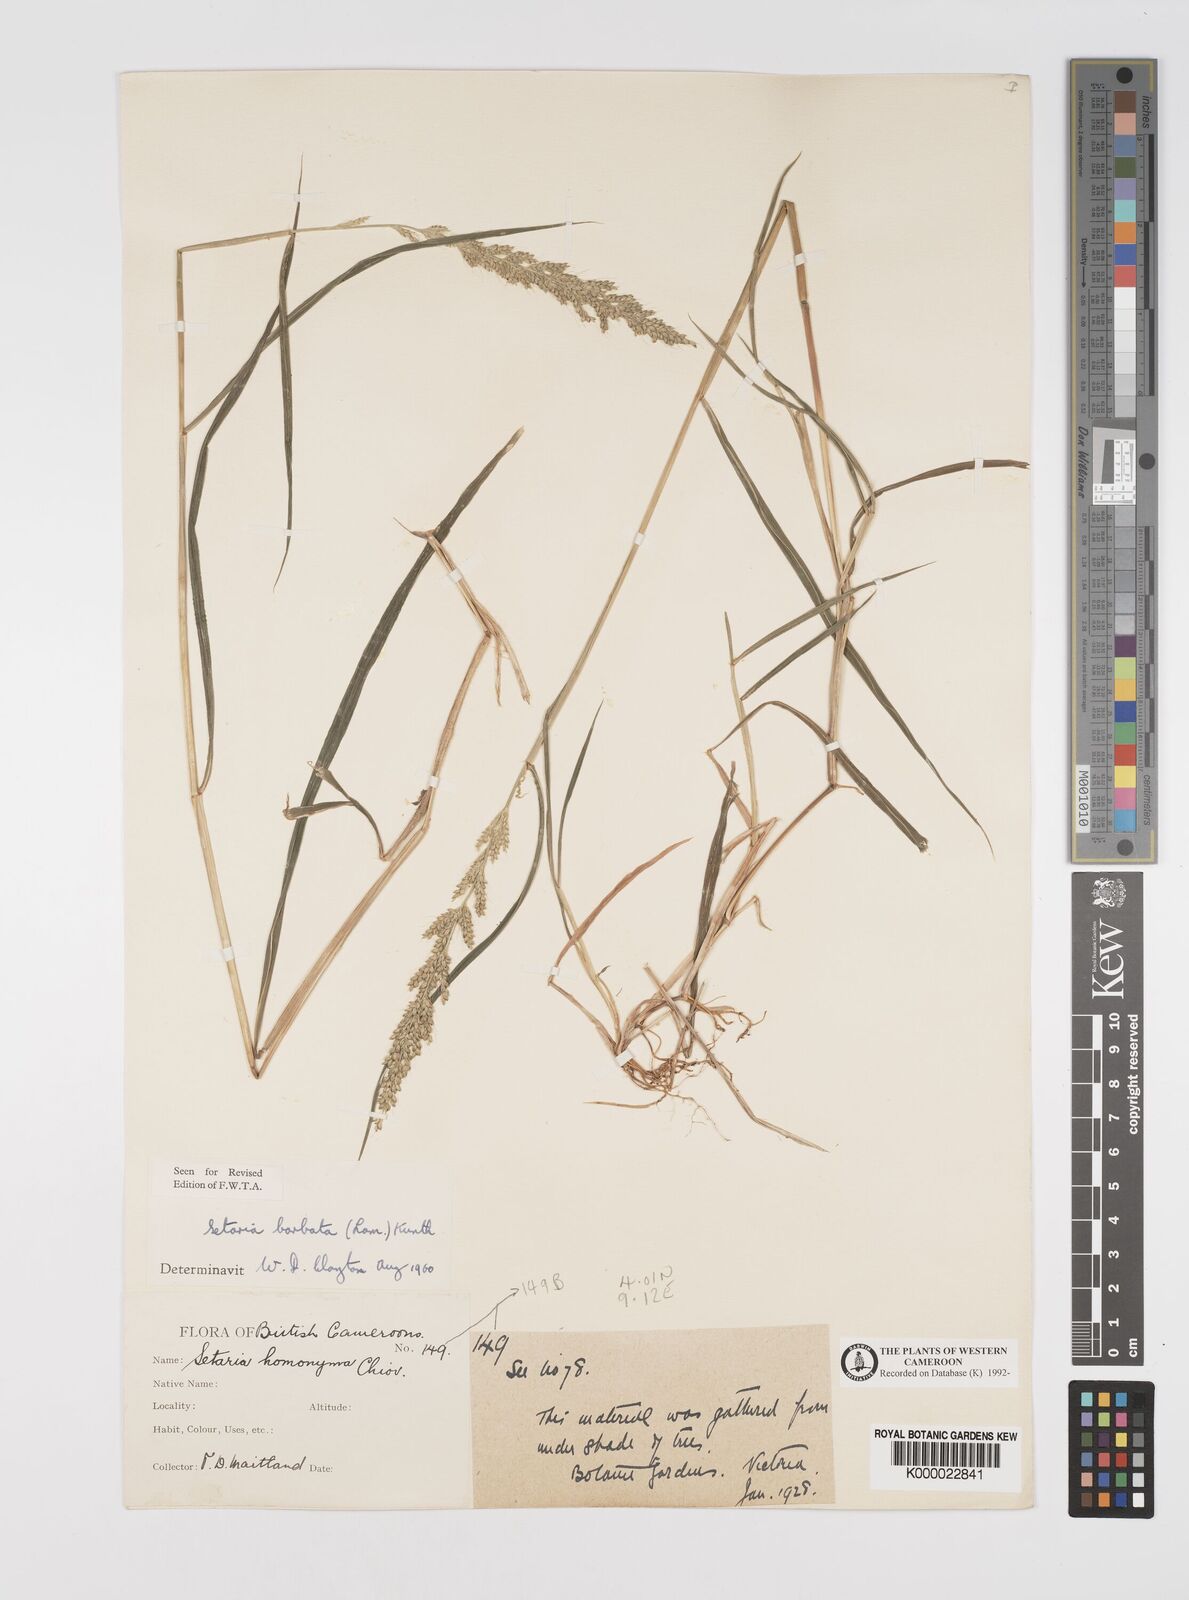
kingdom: Plantae
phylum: Tracheophyta
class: Liliopsida
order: Poales
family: Poaceae
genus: Setaria
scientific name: Setaria barbata
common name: East indian bristlegrass
